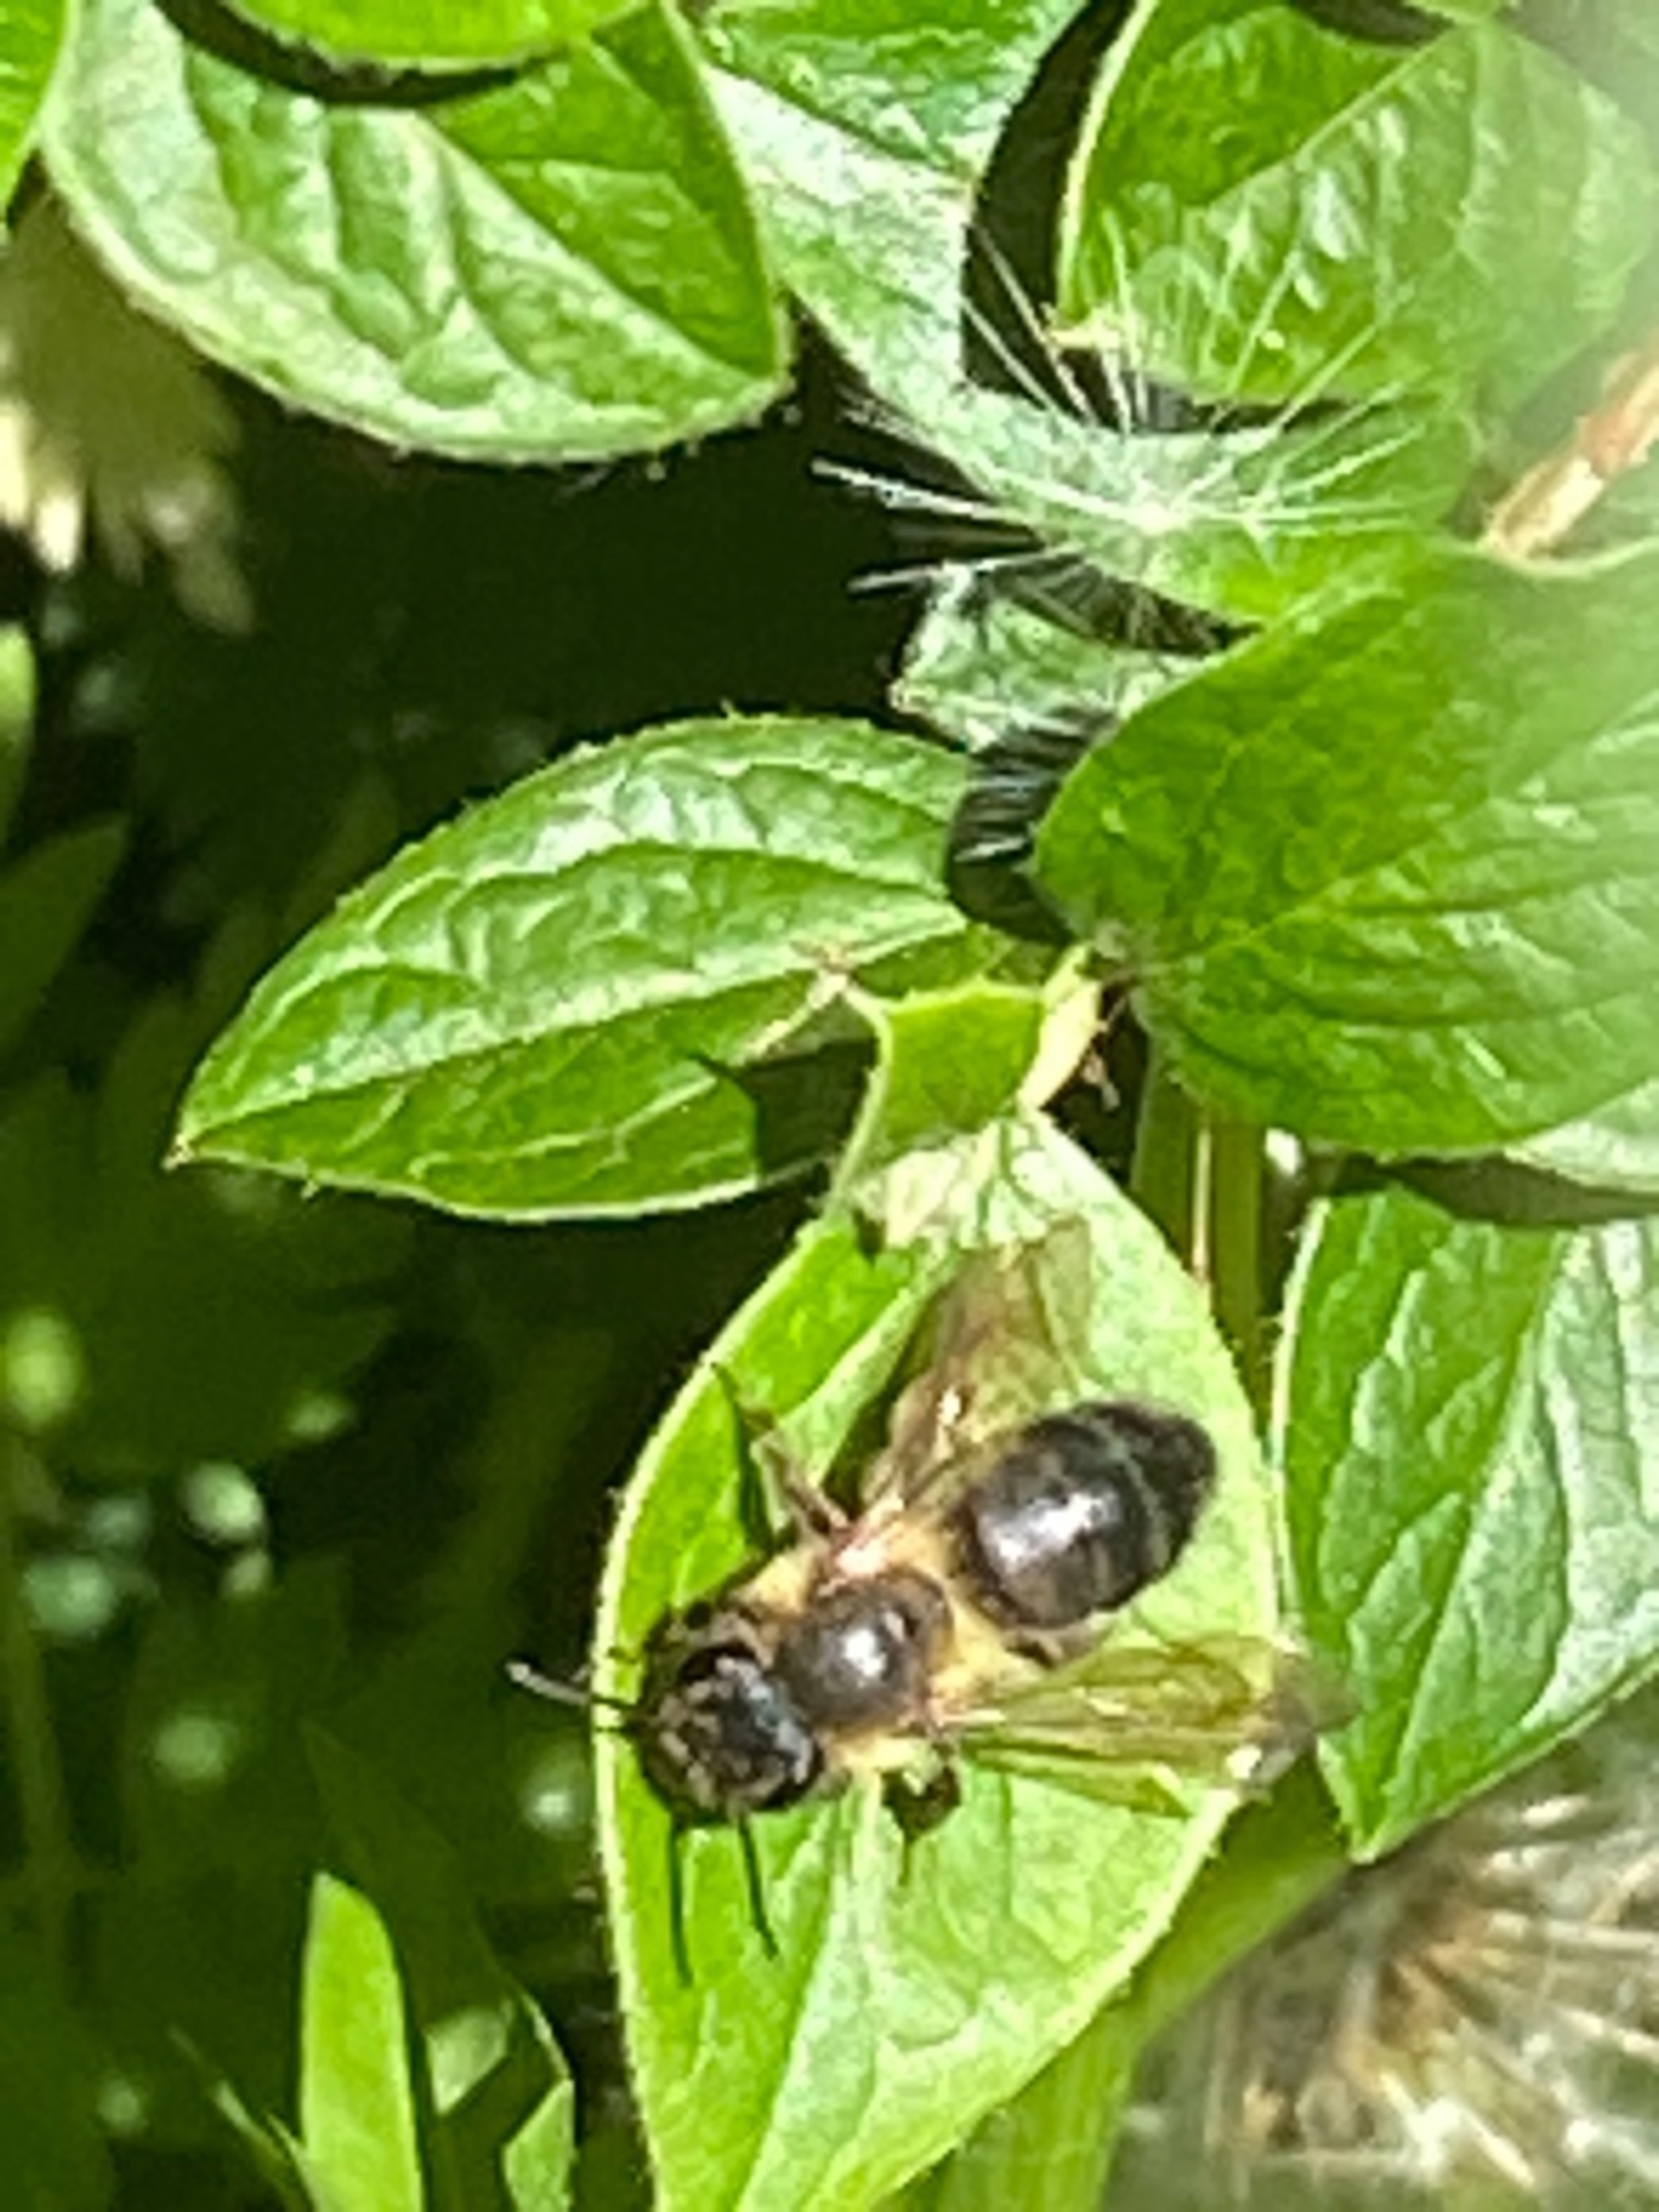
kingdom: Animalia
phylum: Arthropoda
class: Insecta
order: Hymenoptera
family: Andrenidae
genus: Andrena
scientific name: Andrena
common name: Jordbier
